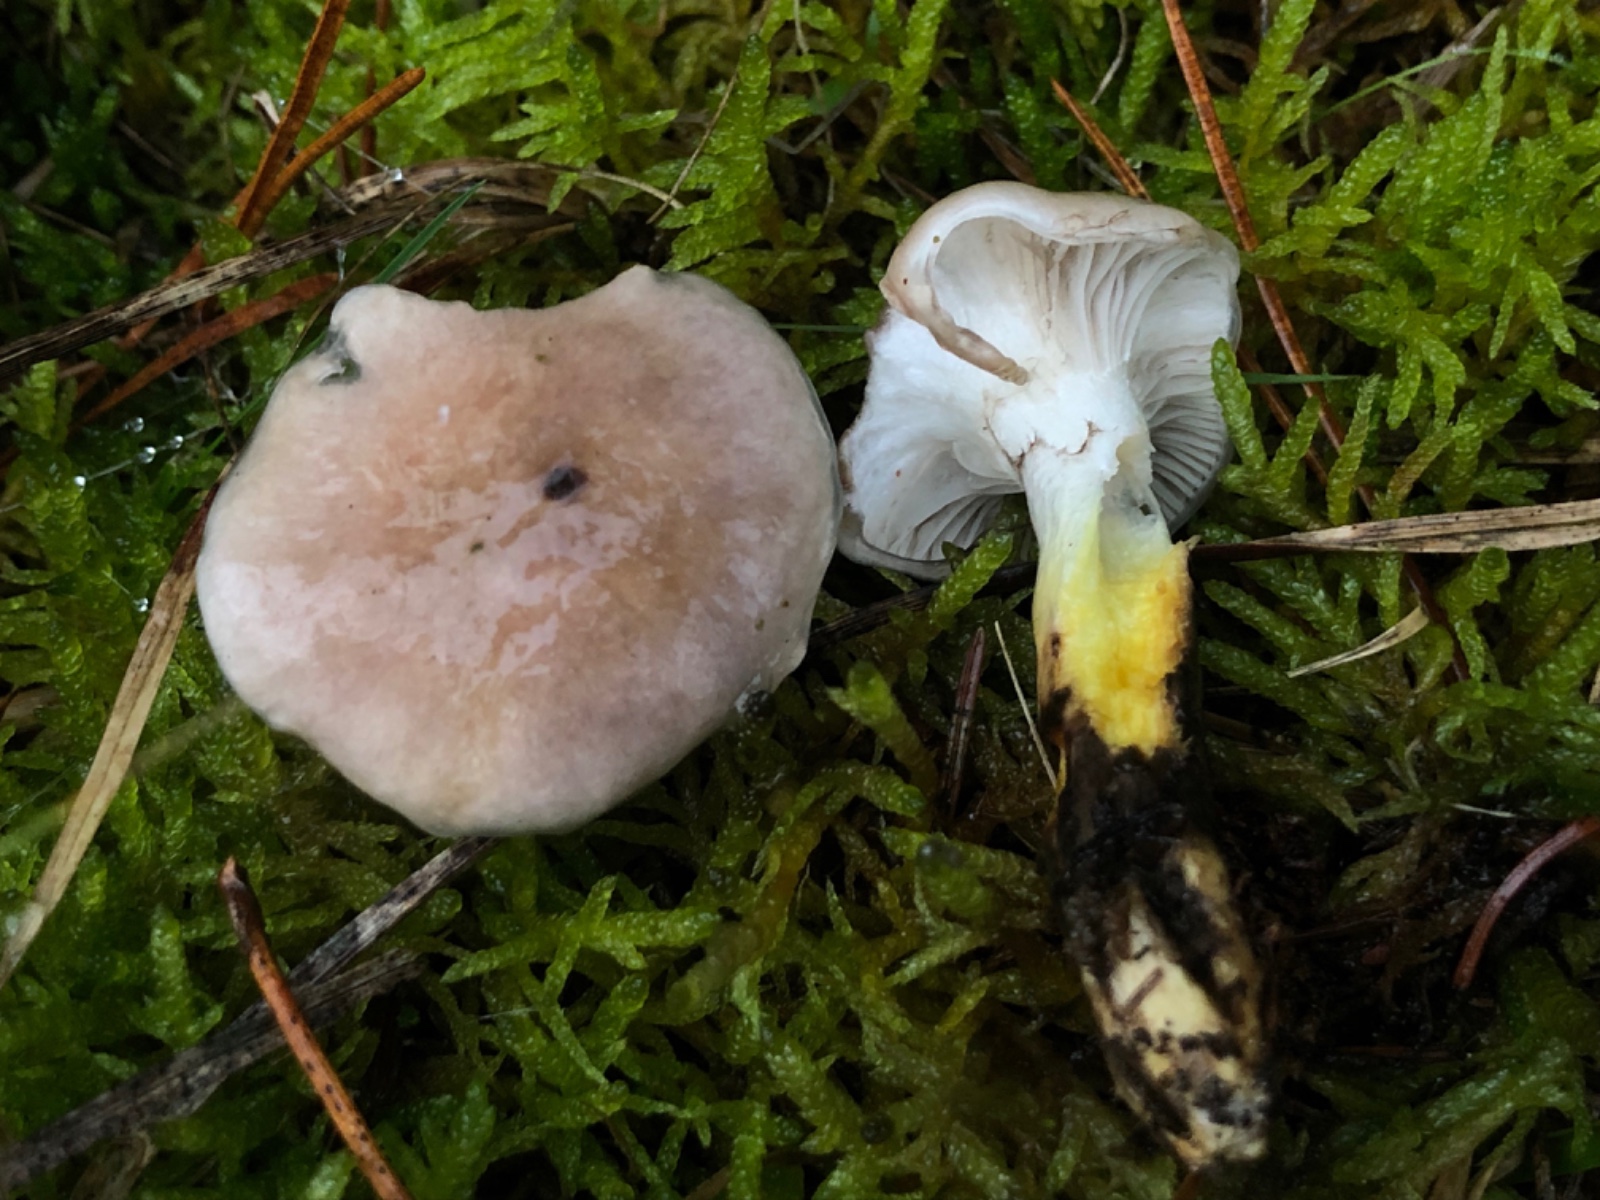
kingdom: Fungi
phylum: Basidiomycota
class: Agaricomycetes
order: Boletales
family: Gomphidiaceae
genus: Gomphidius
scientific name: Gomphidius glutinosus
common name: grå slimslør
